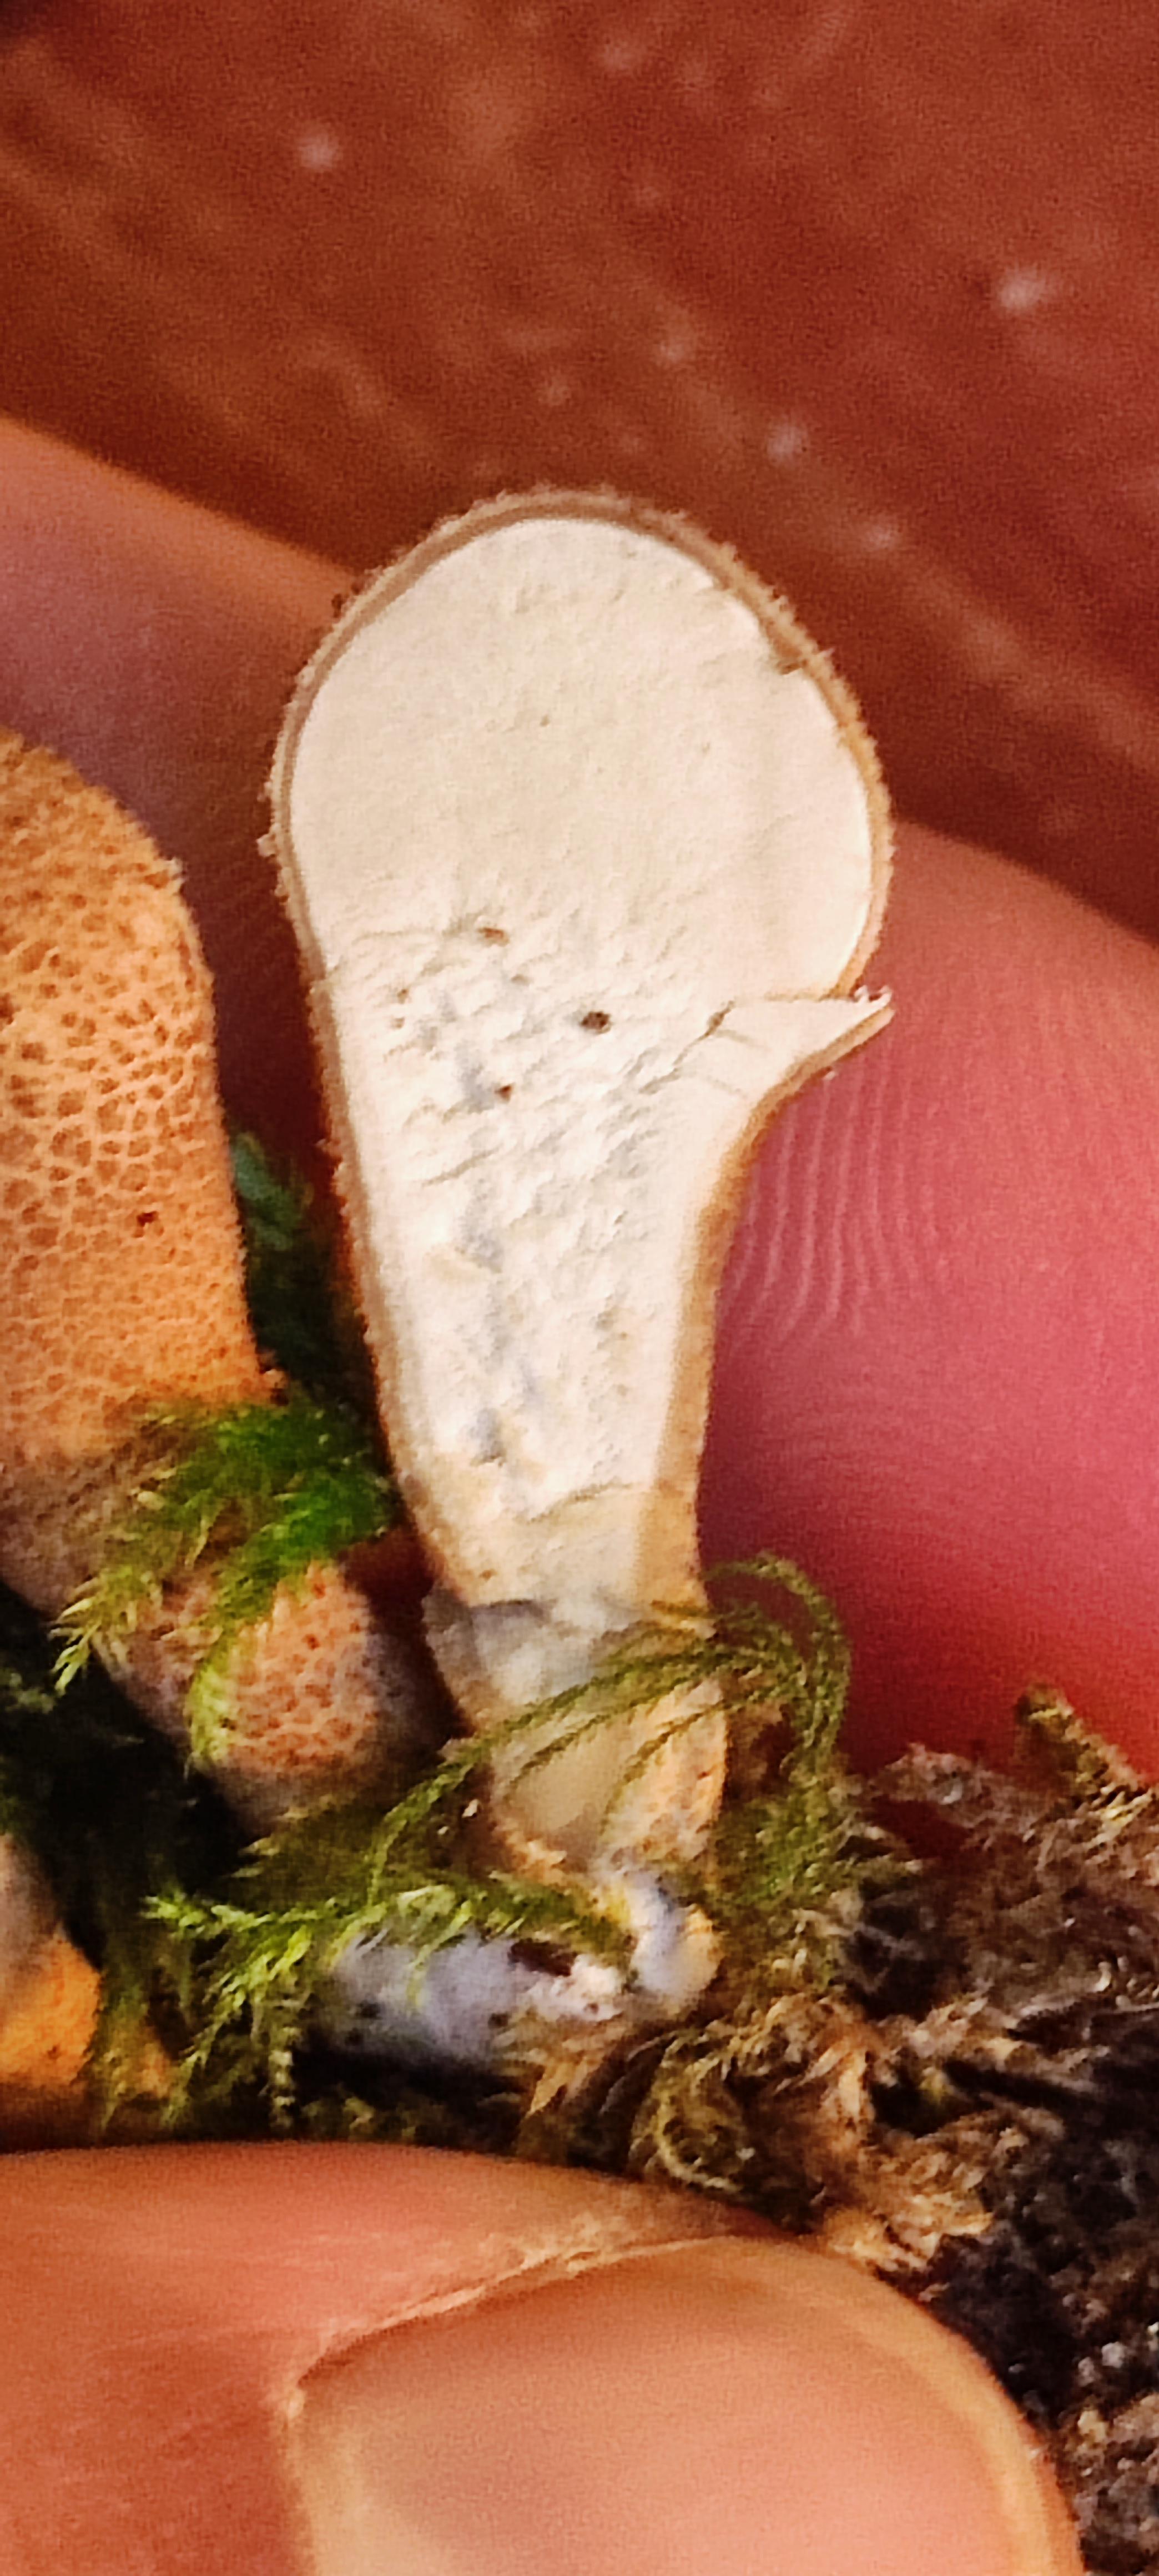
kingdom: Fungi
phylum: Basidiomycota
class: Agaricomycetes
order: Agaricales
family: Lycoperdaceae
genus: Lycoperdon
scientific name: Lycoperdon perlatum
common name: krystal-støvbold
